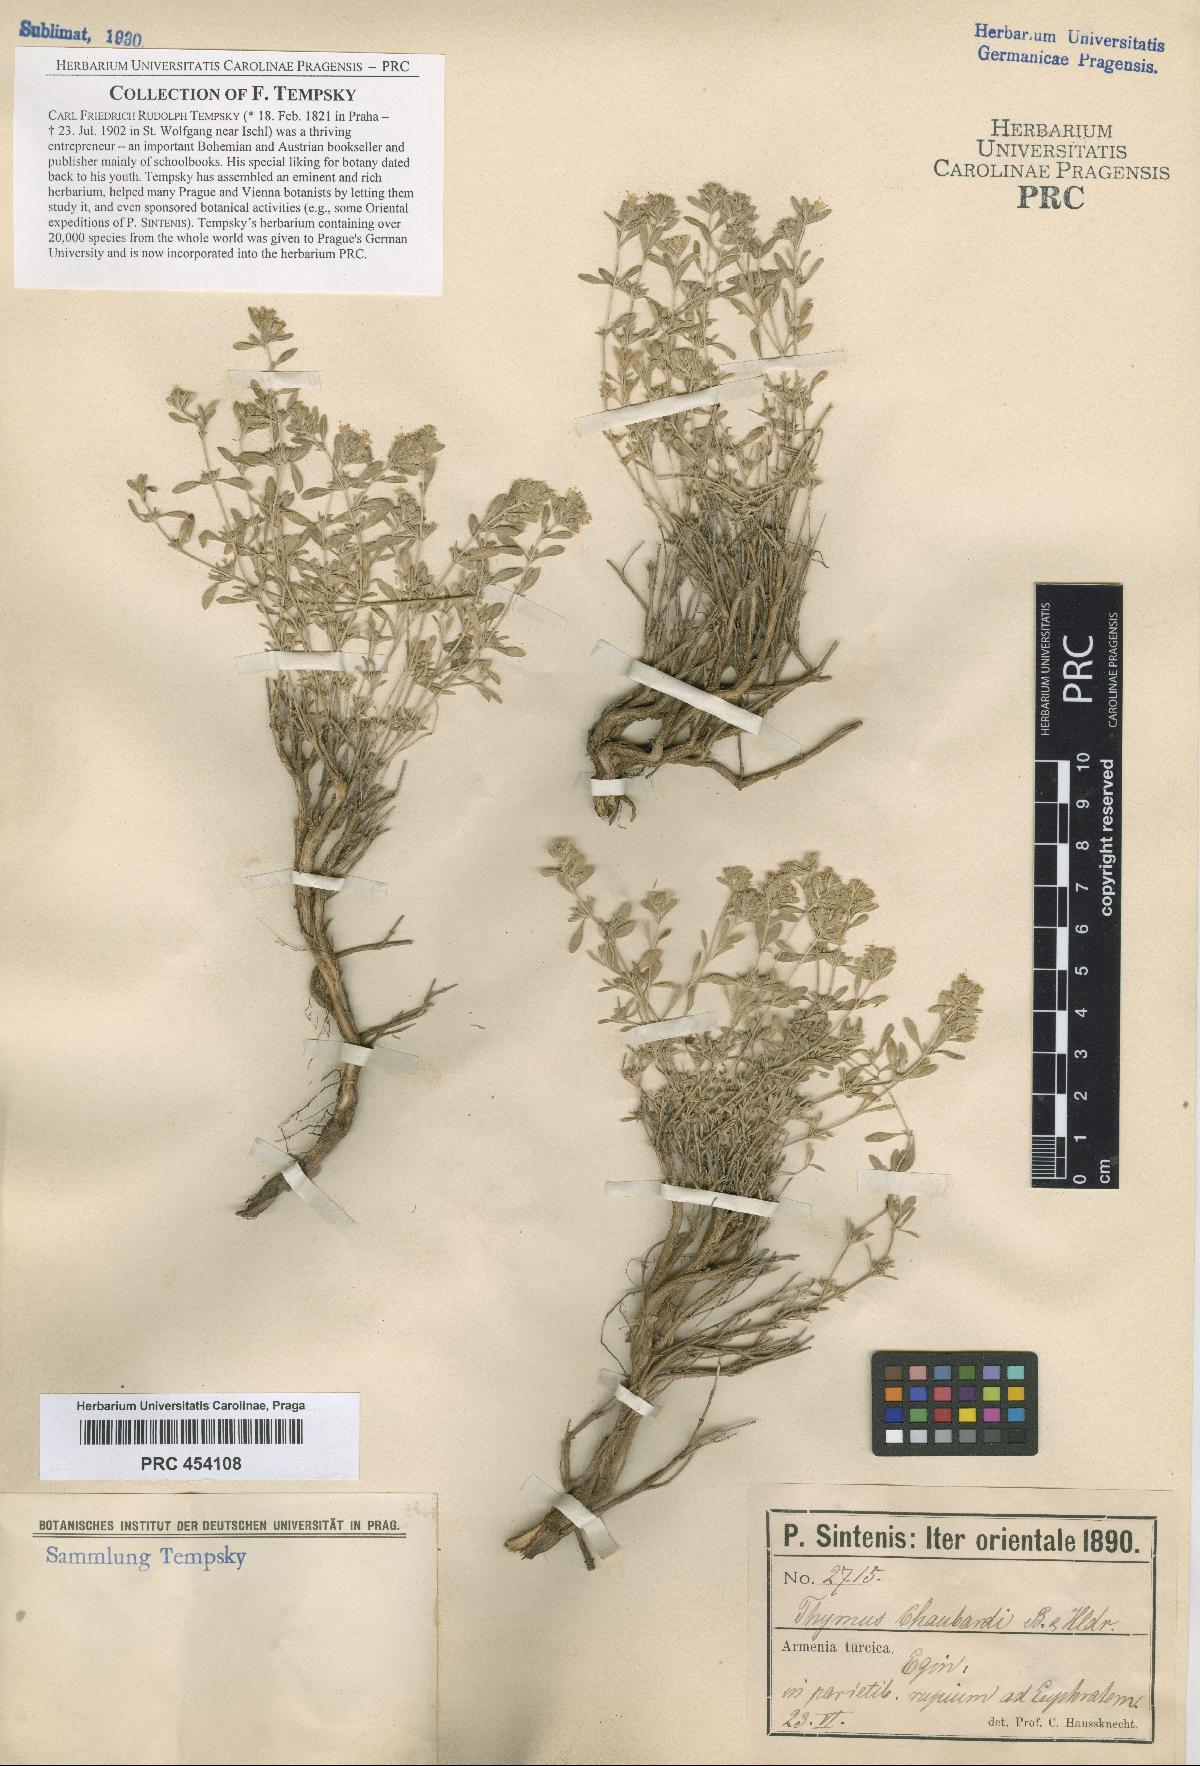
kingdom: Plantae
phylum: Tracheophyta
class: Magnoliopsida
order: Lamiales
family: Lamiaceae
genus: Thymus
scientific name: Thymus longicaulis
